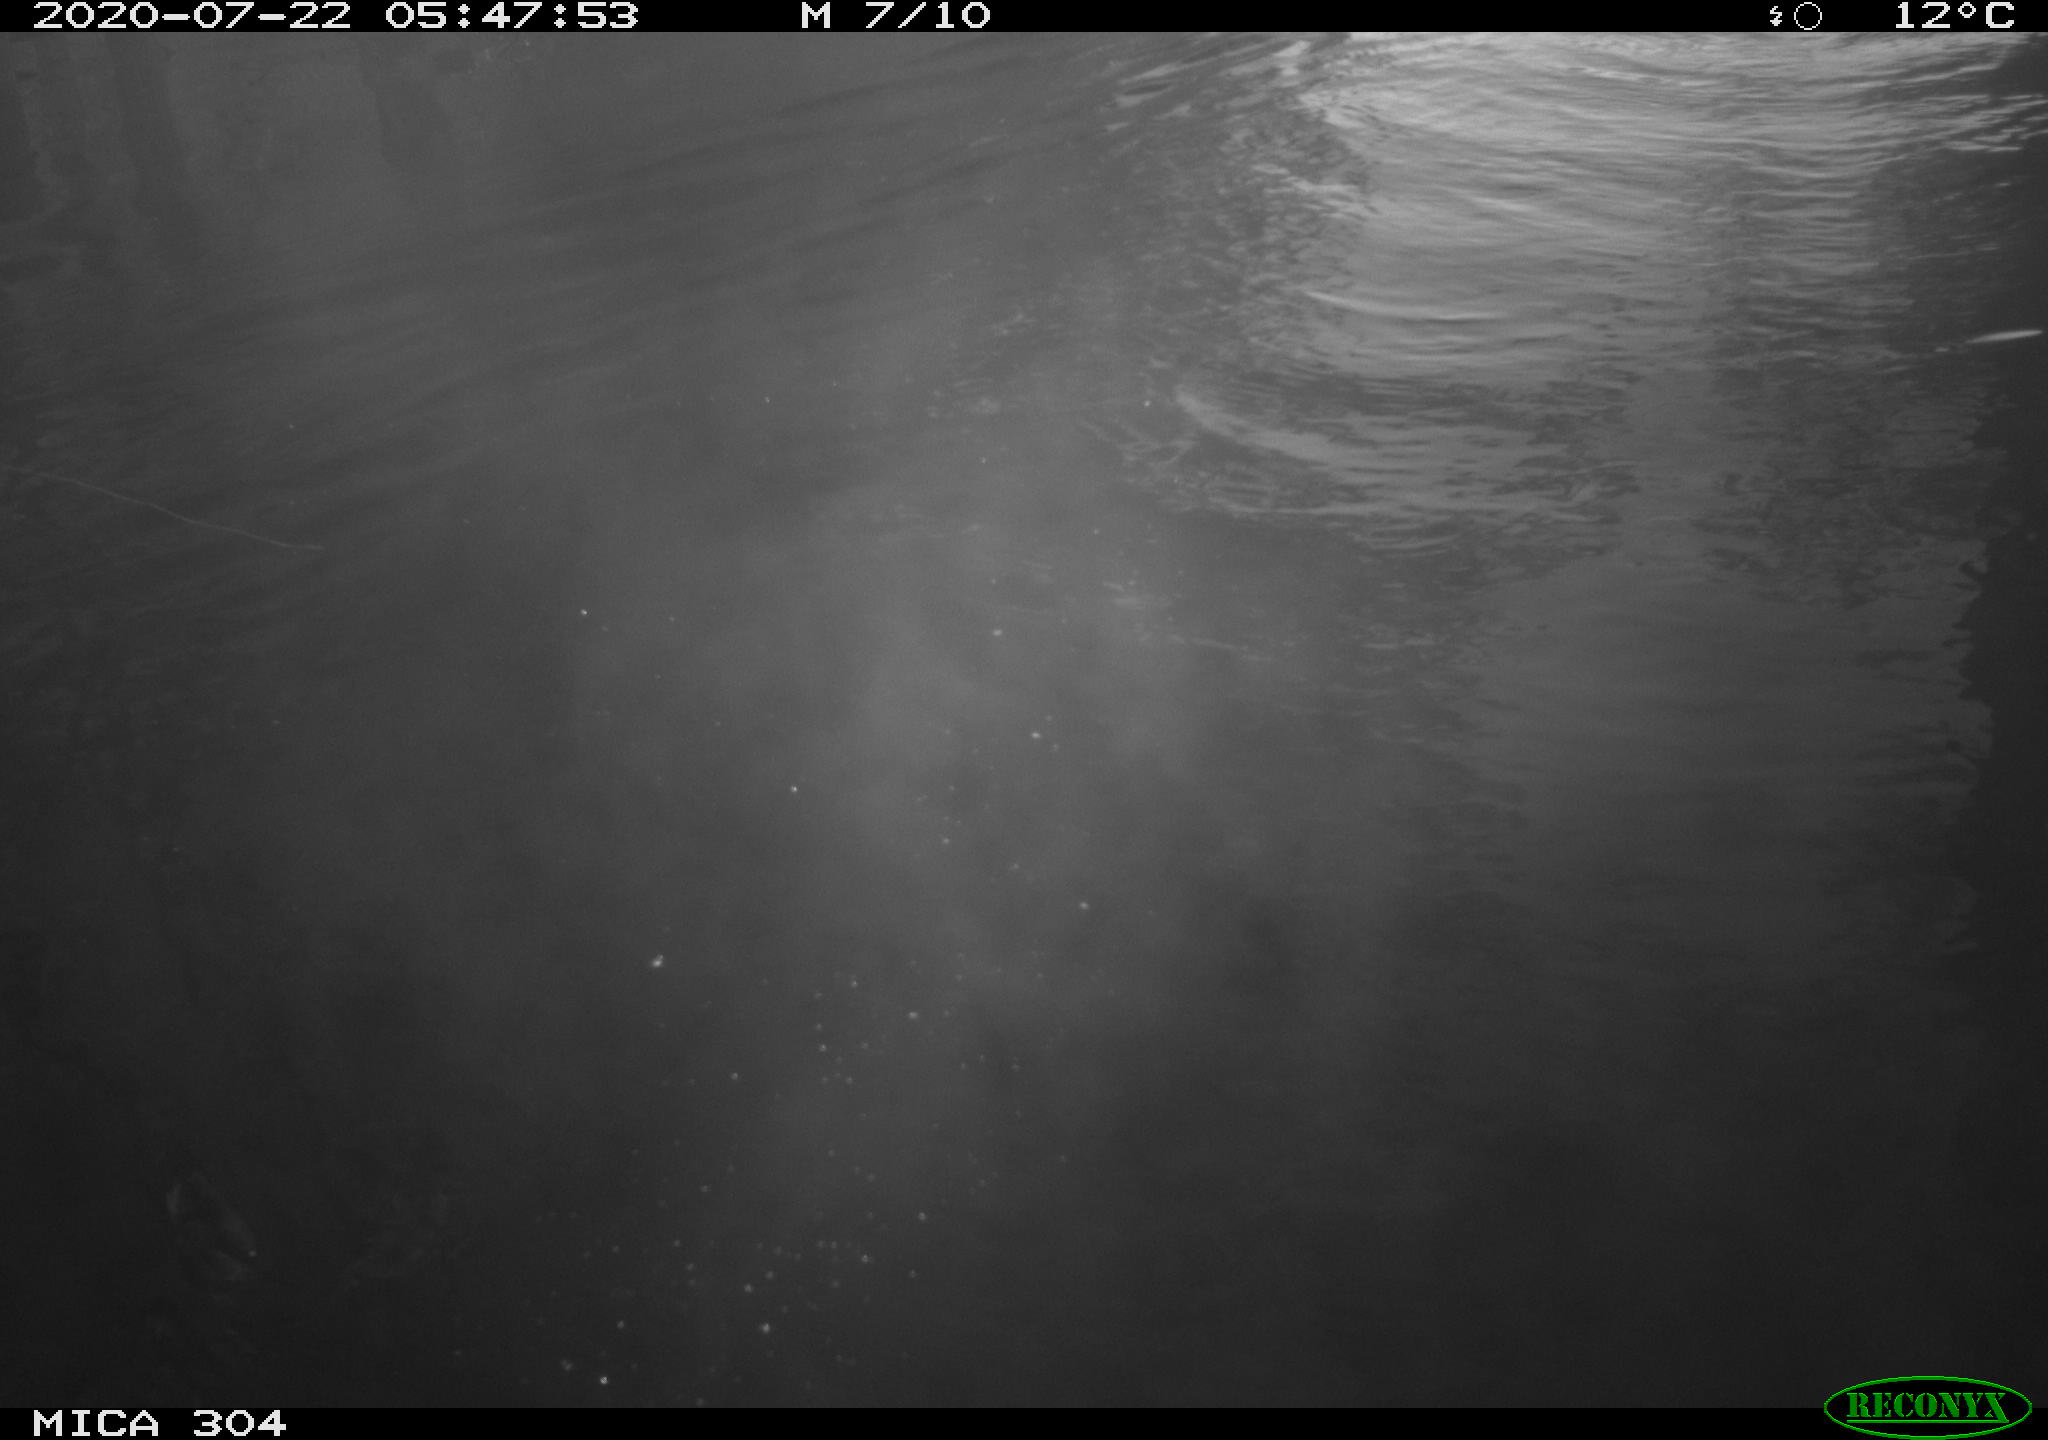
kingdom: Animalia
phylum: Chordata
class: Aves
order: Anseriformes
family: Anatidae
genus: Anas
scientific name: Anas platyrhynchos
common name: Mallard
